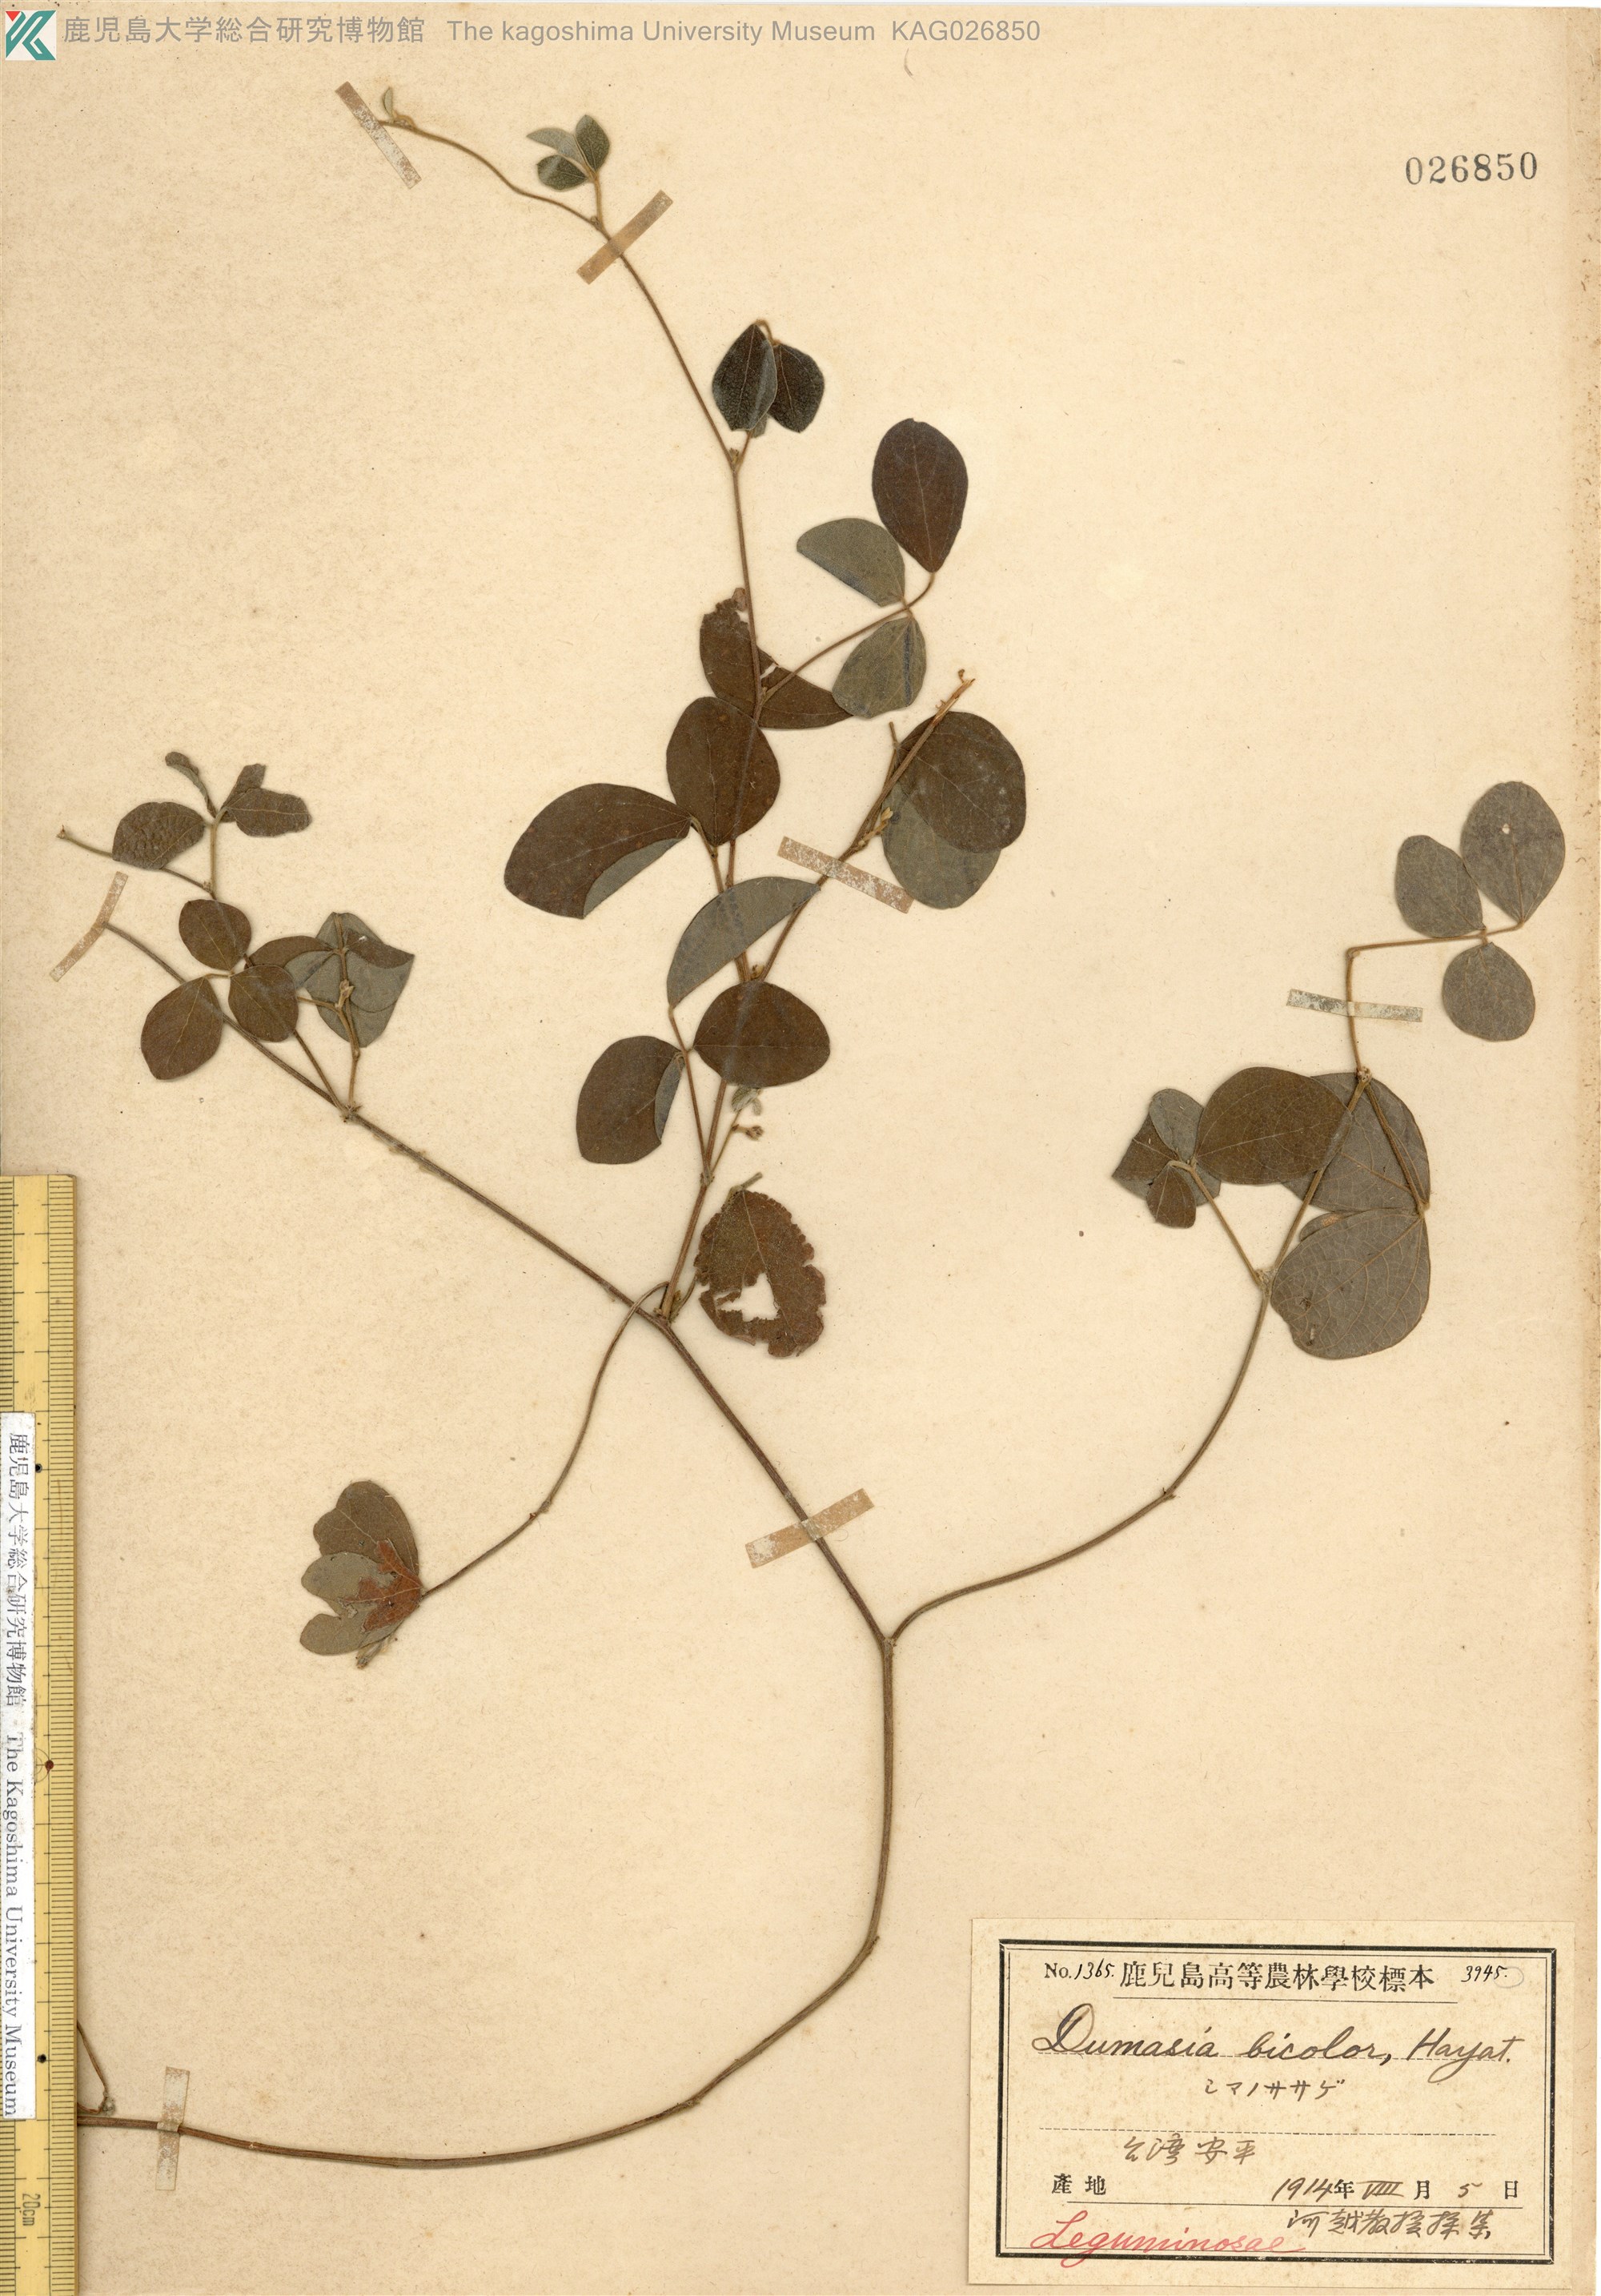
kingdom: Plantae
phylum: Tracheophyta
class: Magnoliopsida
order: Fabales
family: Fabaceae
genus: Cajanus
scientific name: Cajanus scarabaeoides
